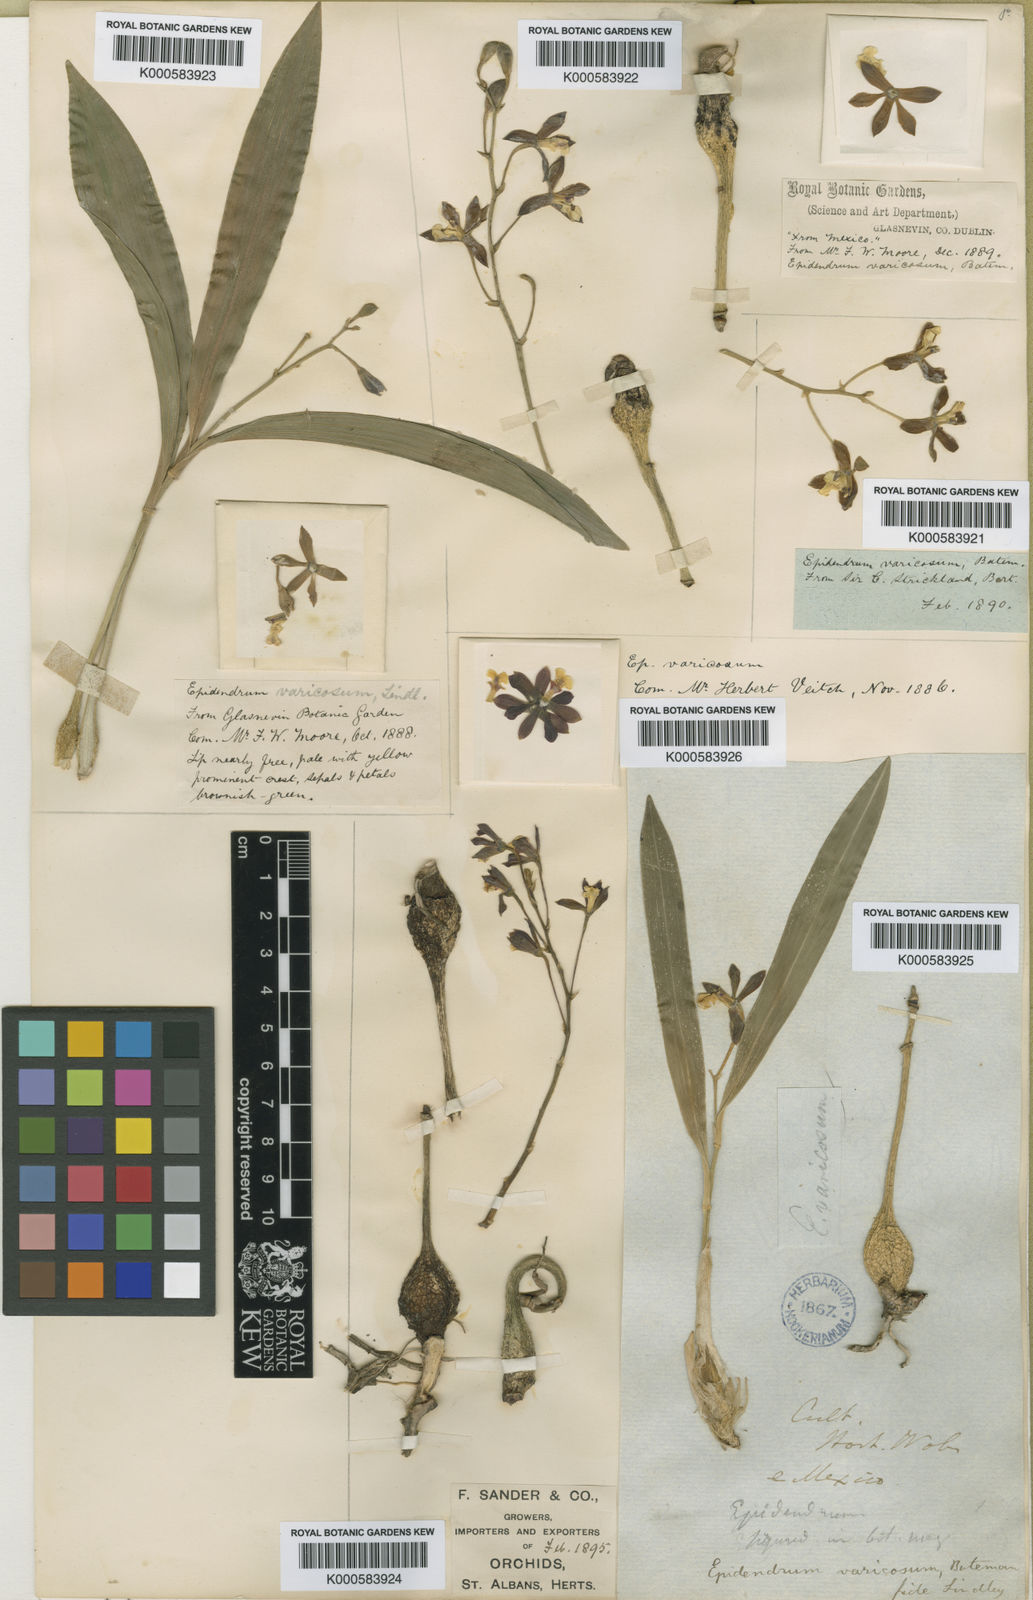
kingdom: Plantae
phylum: Tracheophyta
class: Liliopsida
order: Asparagales
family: Orchidaceae
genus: Prosthechea
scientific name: Prosthechea varicosa
